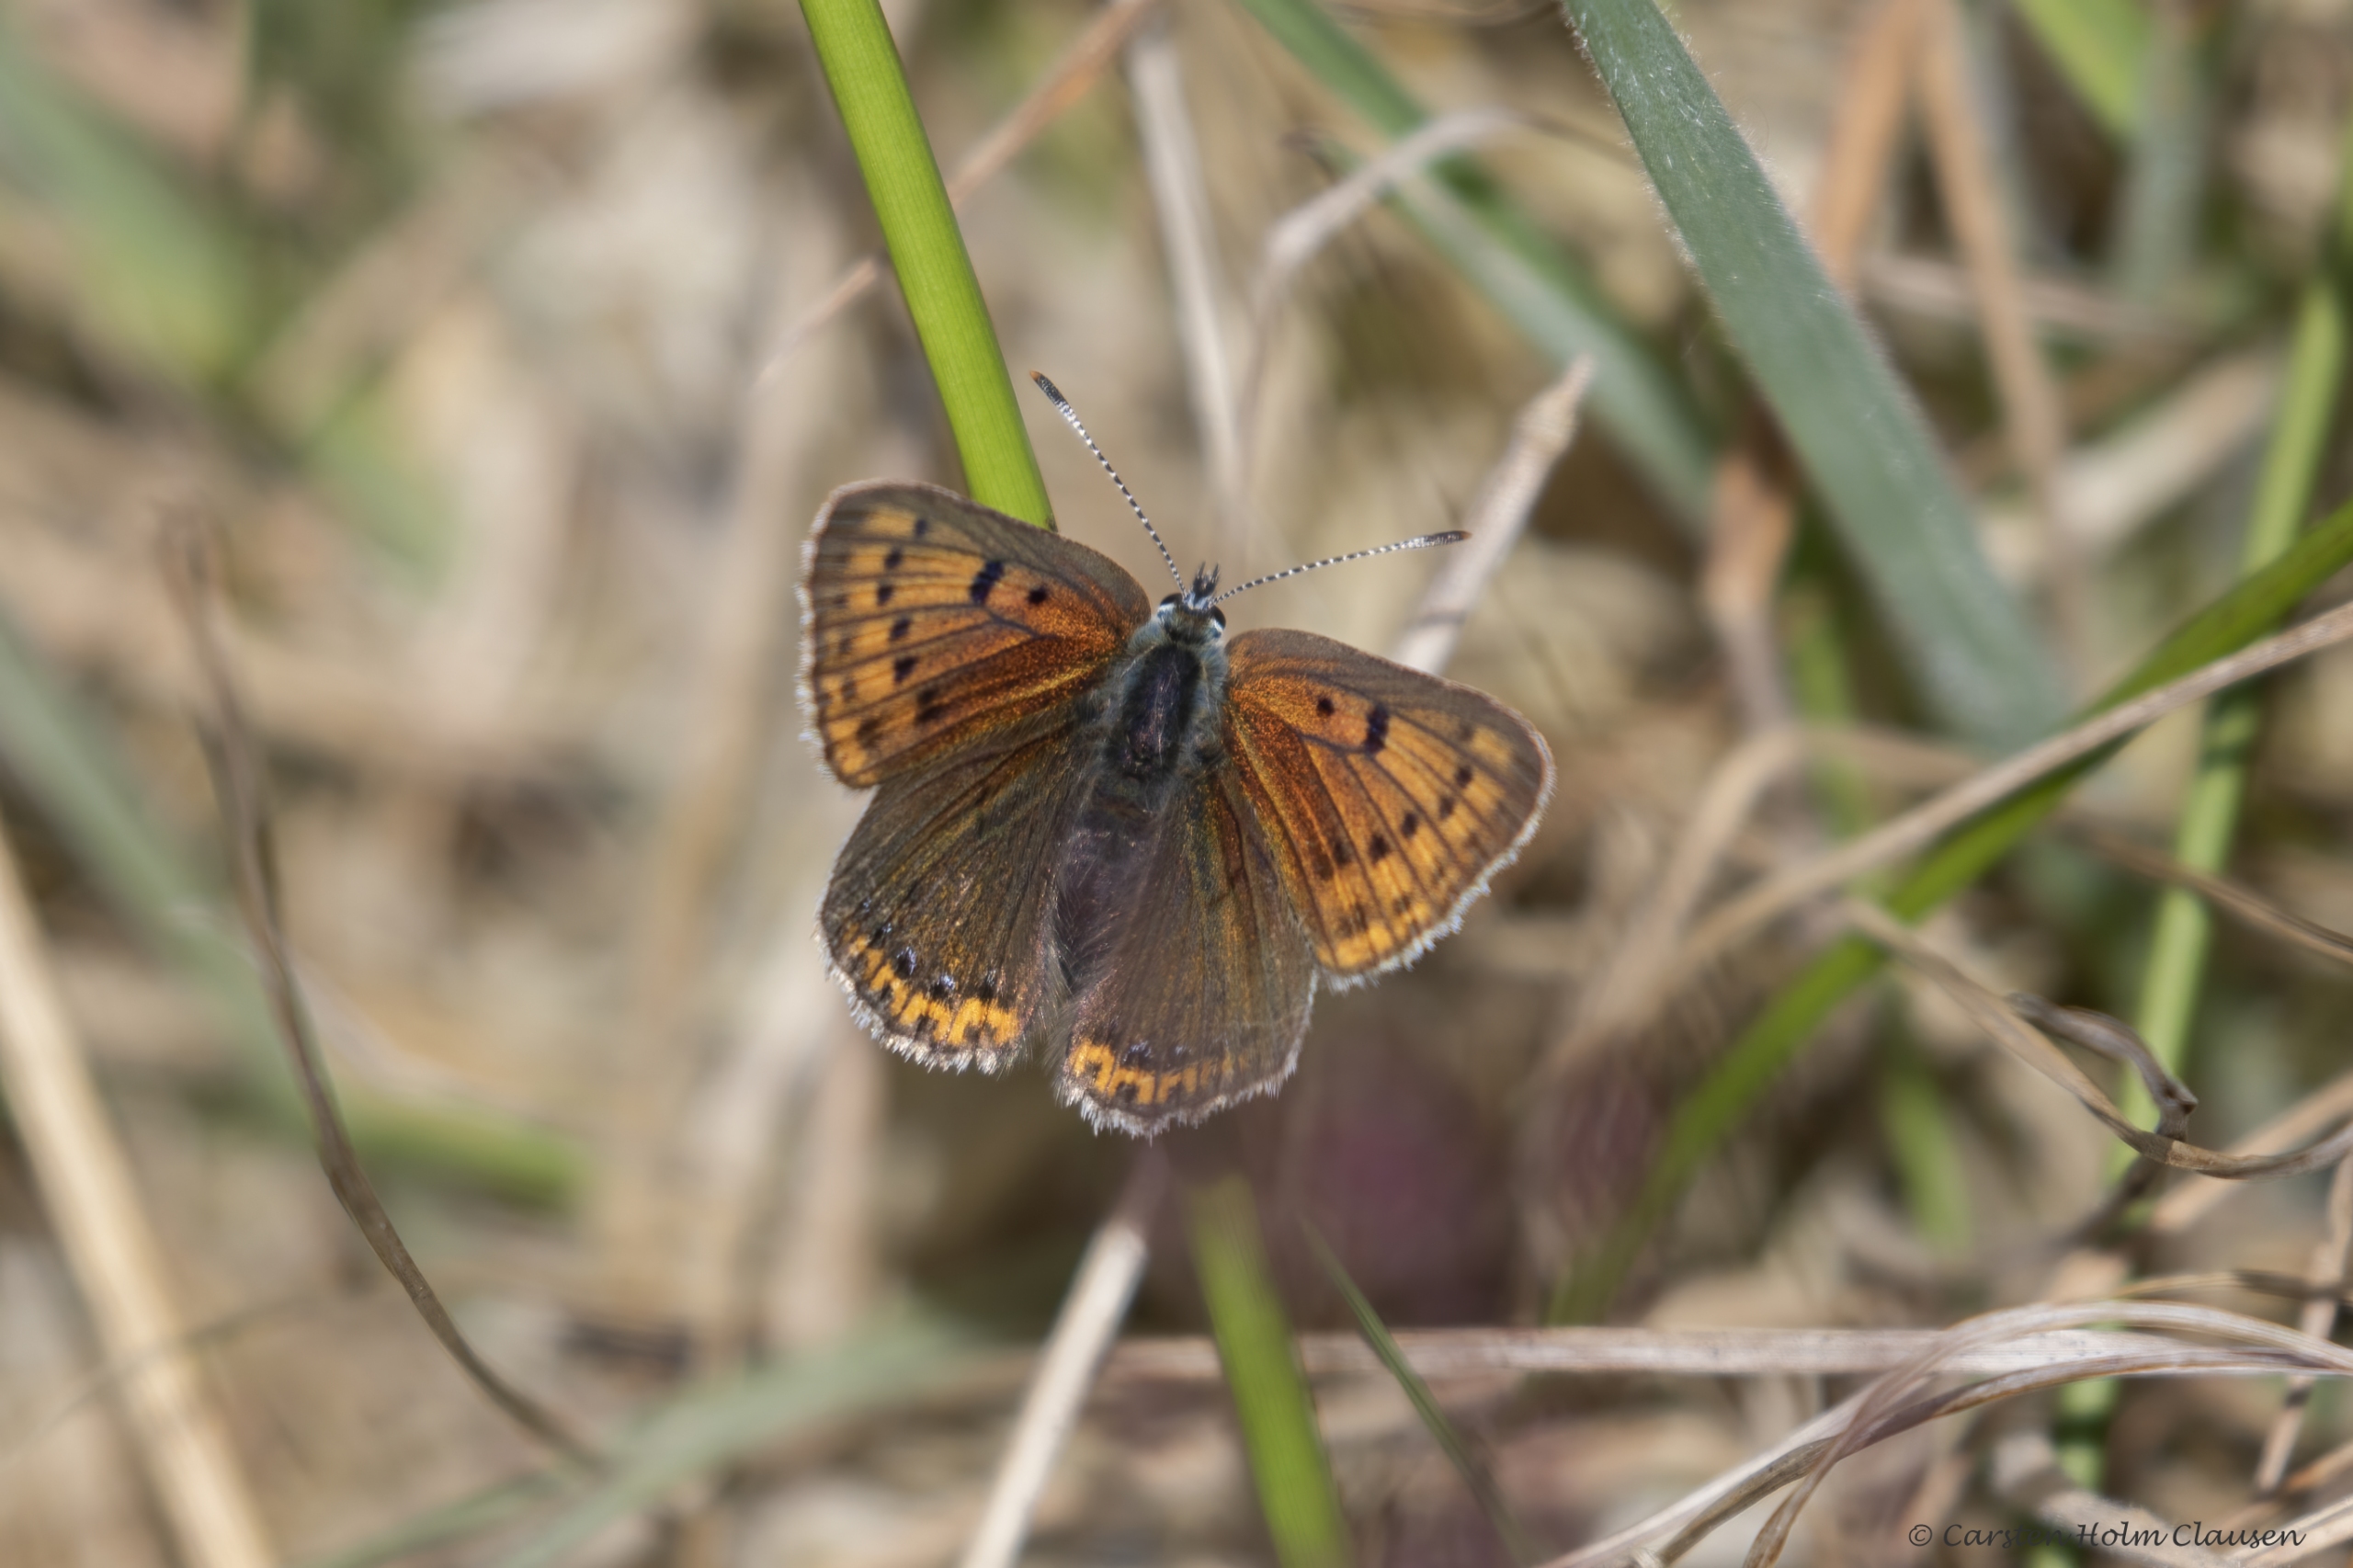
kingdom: Animalia
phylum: Arthropoda
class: Insecta
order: Lepidoptera
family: Lycaenidae
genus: Palaeochrysophanus
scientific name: Palaeochrysophanus hippothoe
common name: Violetrandet ildfugl
